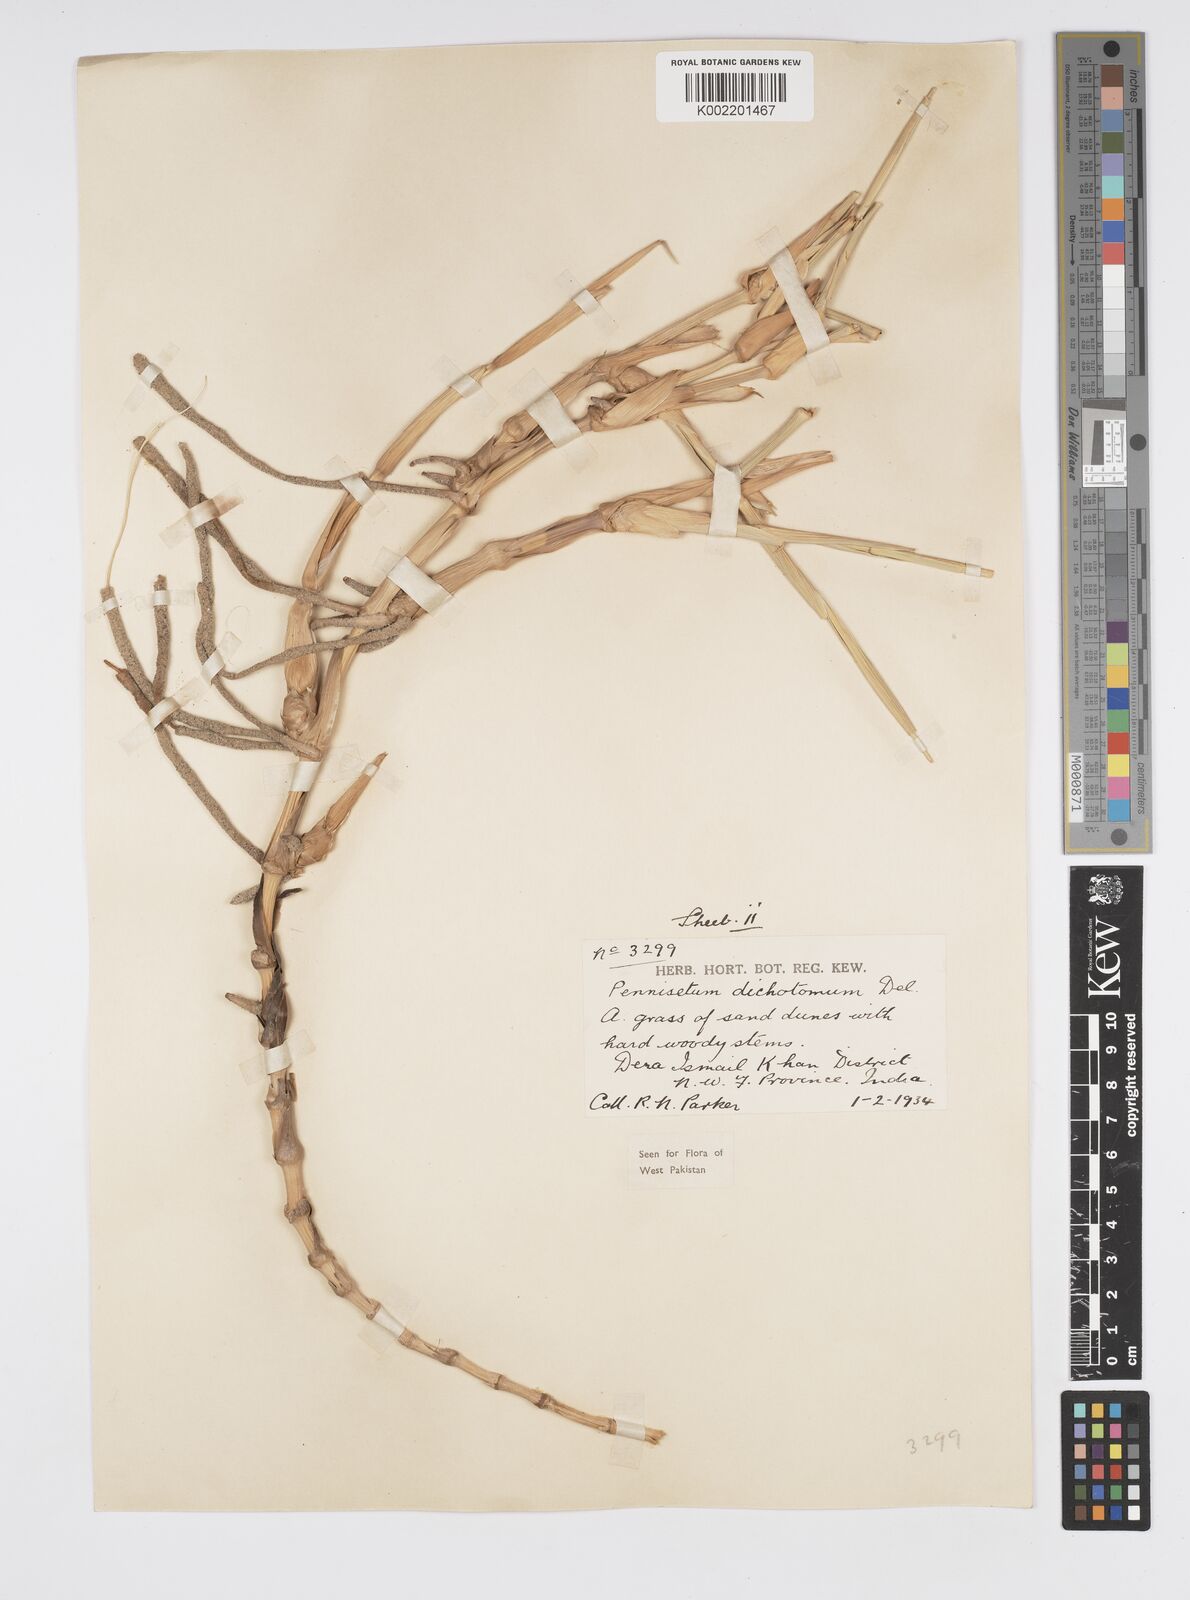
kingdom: Plantae
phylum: Tracheophyta
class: Liliopsida
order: Poales
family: Poaceae
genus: Cenchrus
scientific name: Cenchrus divisus
